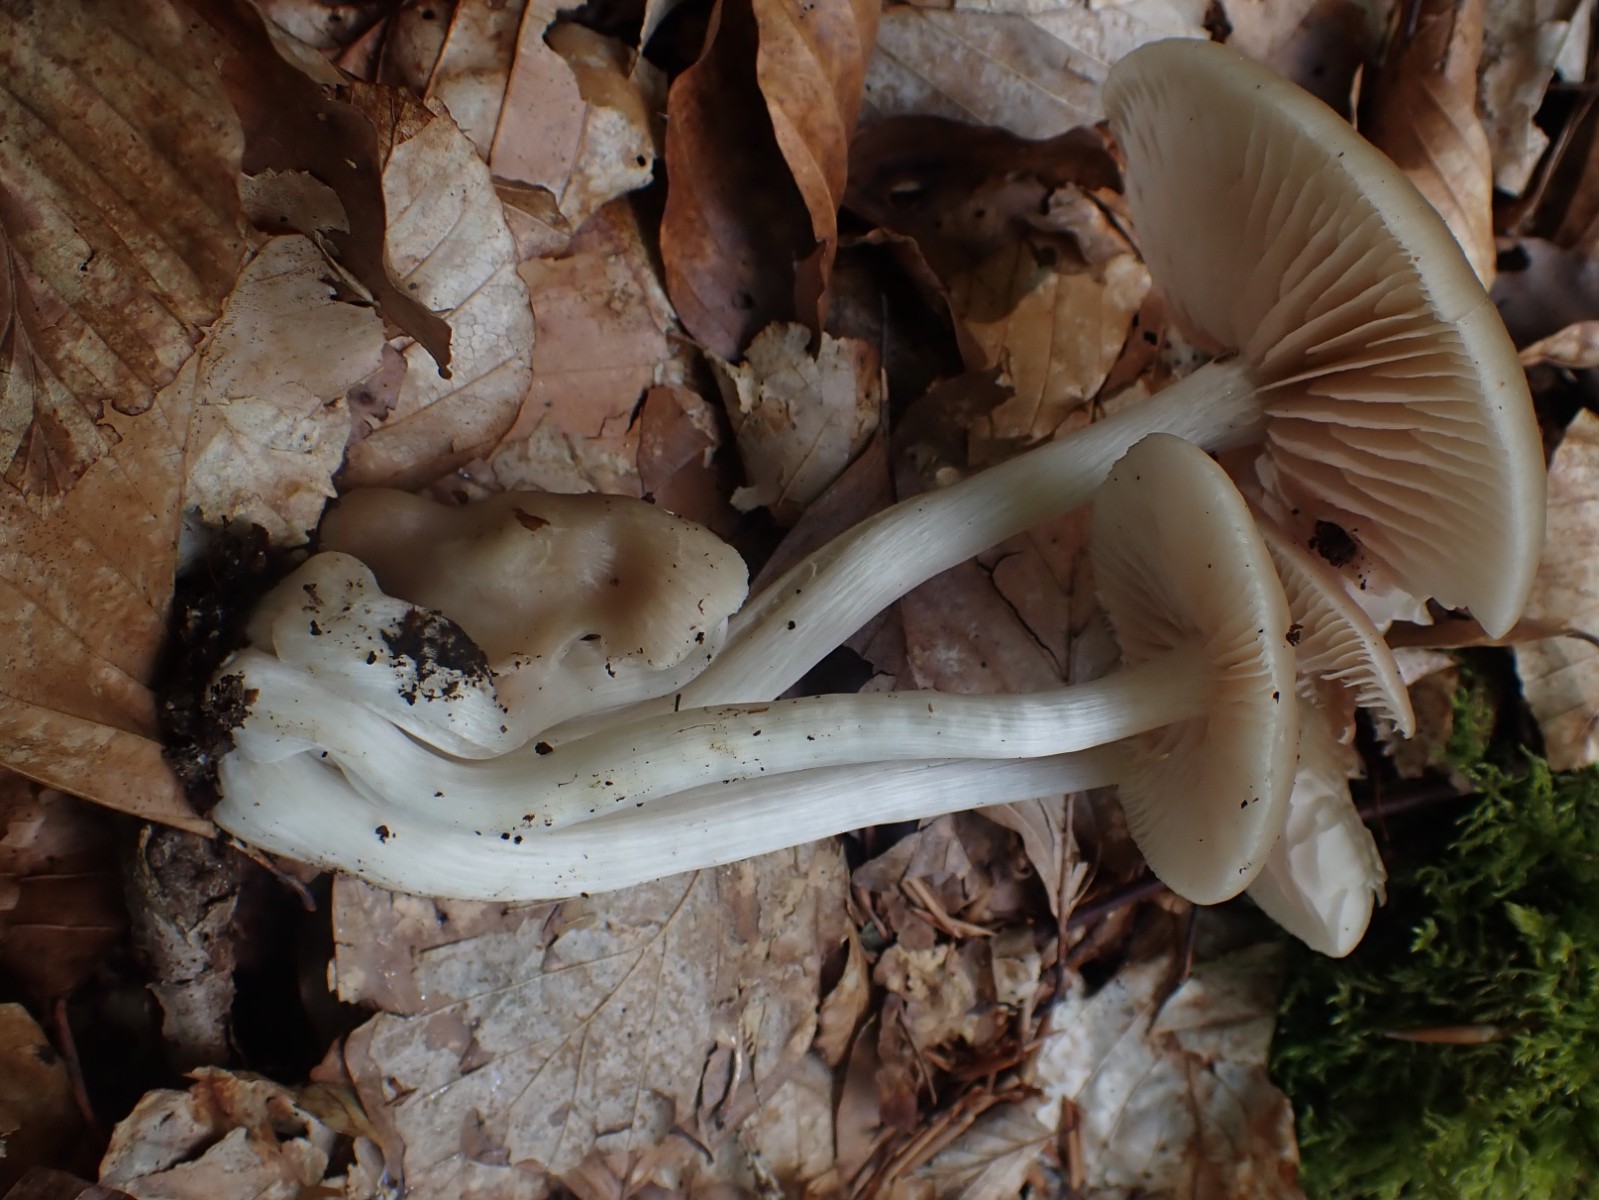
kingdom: Fungi
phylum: Basidiomycota
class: Agaricomycetes
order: Agaricales
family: Entolomataceae
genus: Entoloma
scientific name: Entoloma rhodopolium
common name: skov-rødblad
